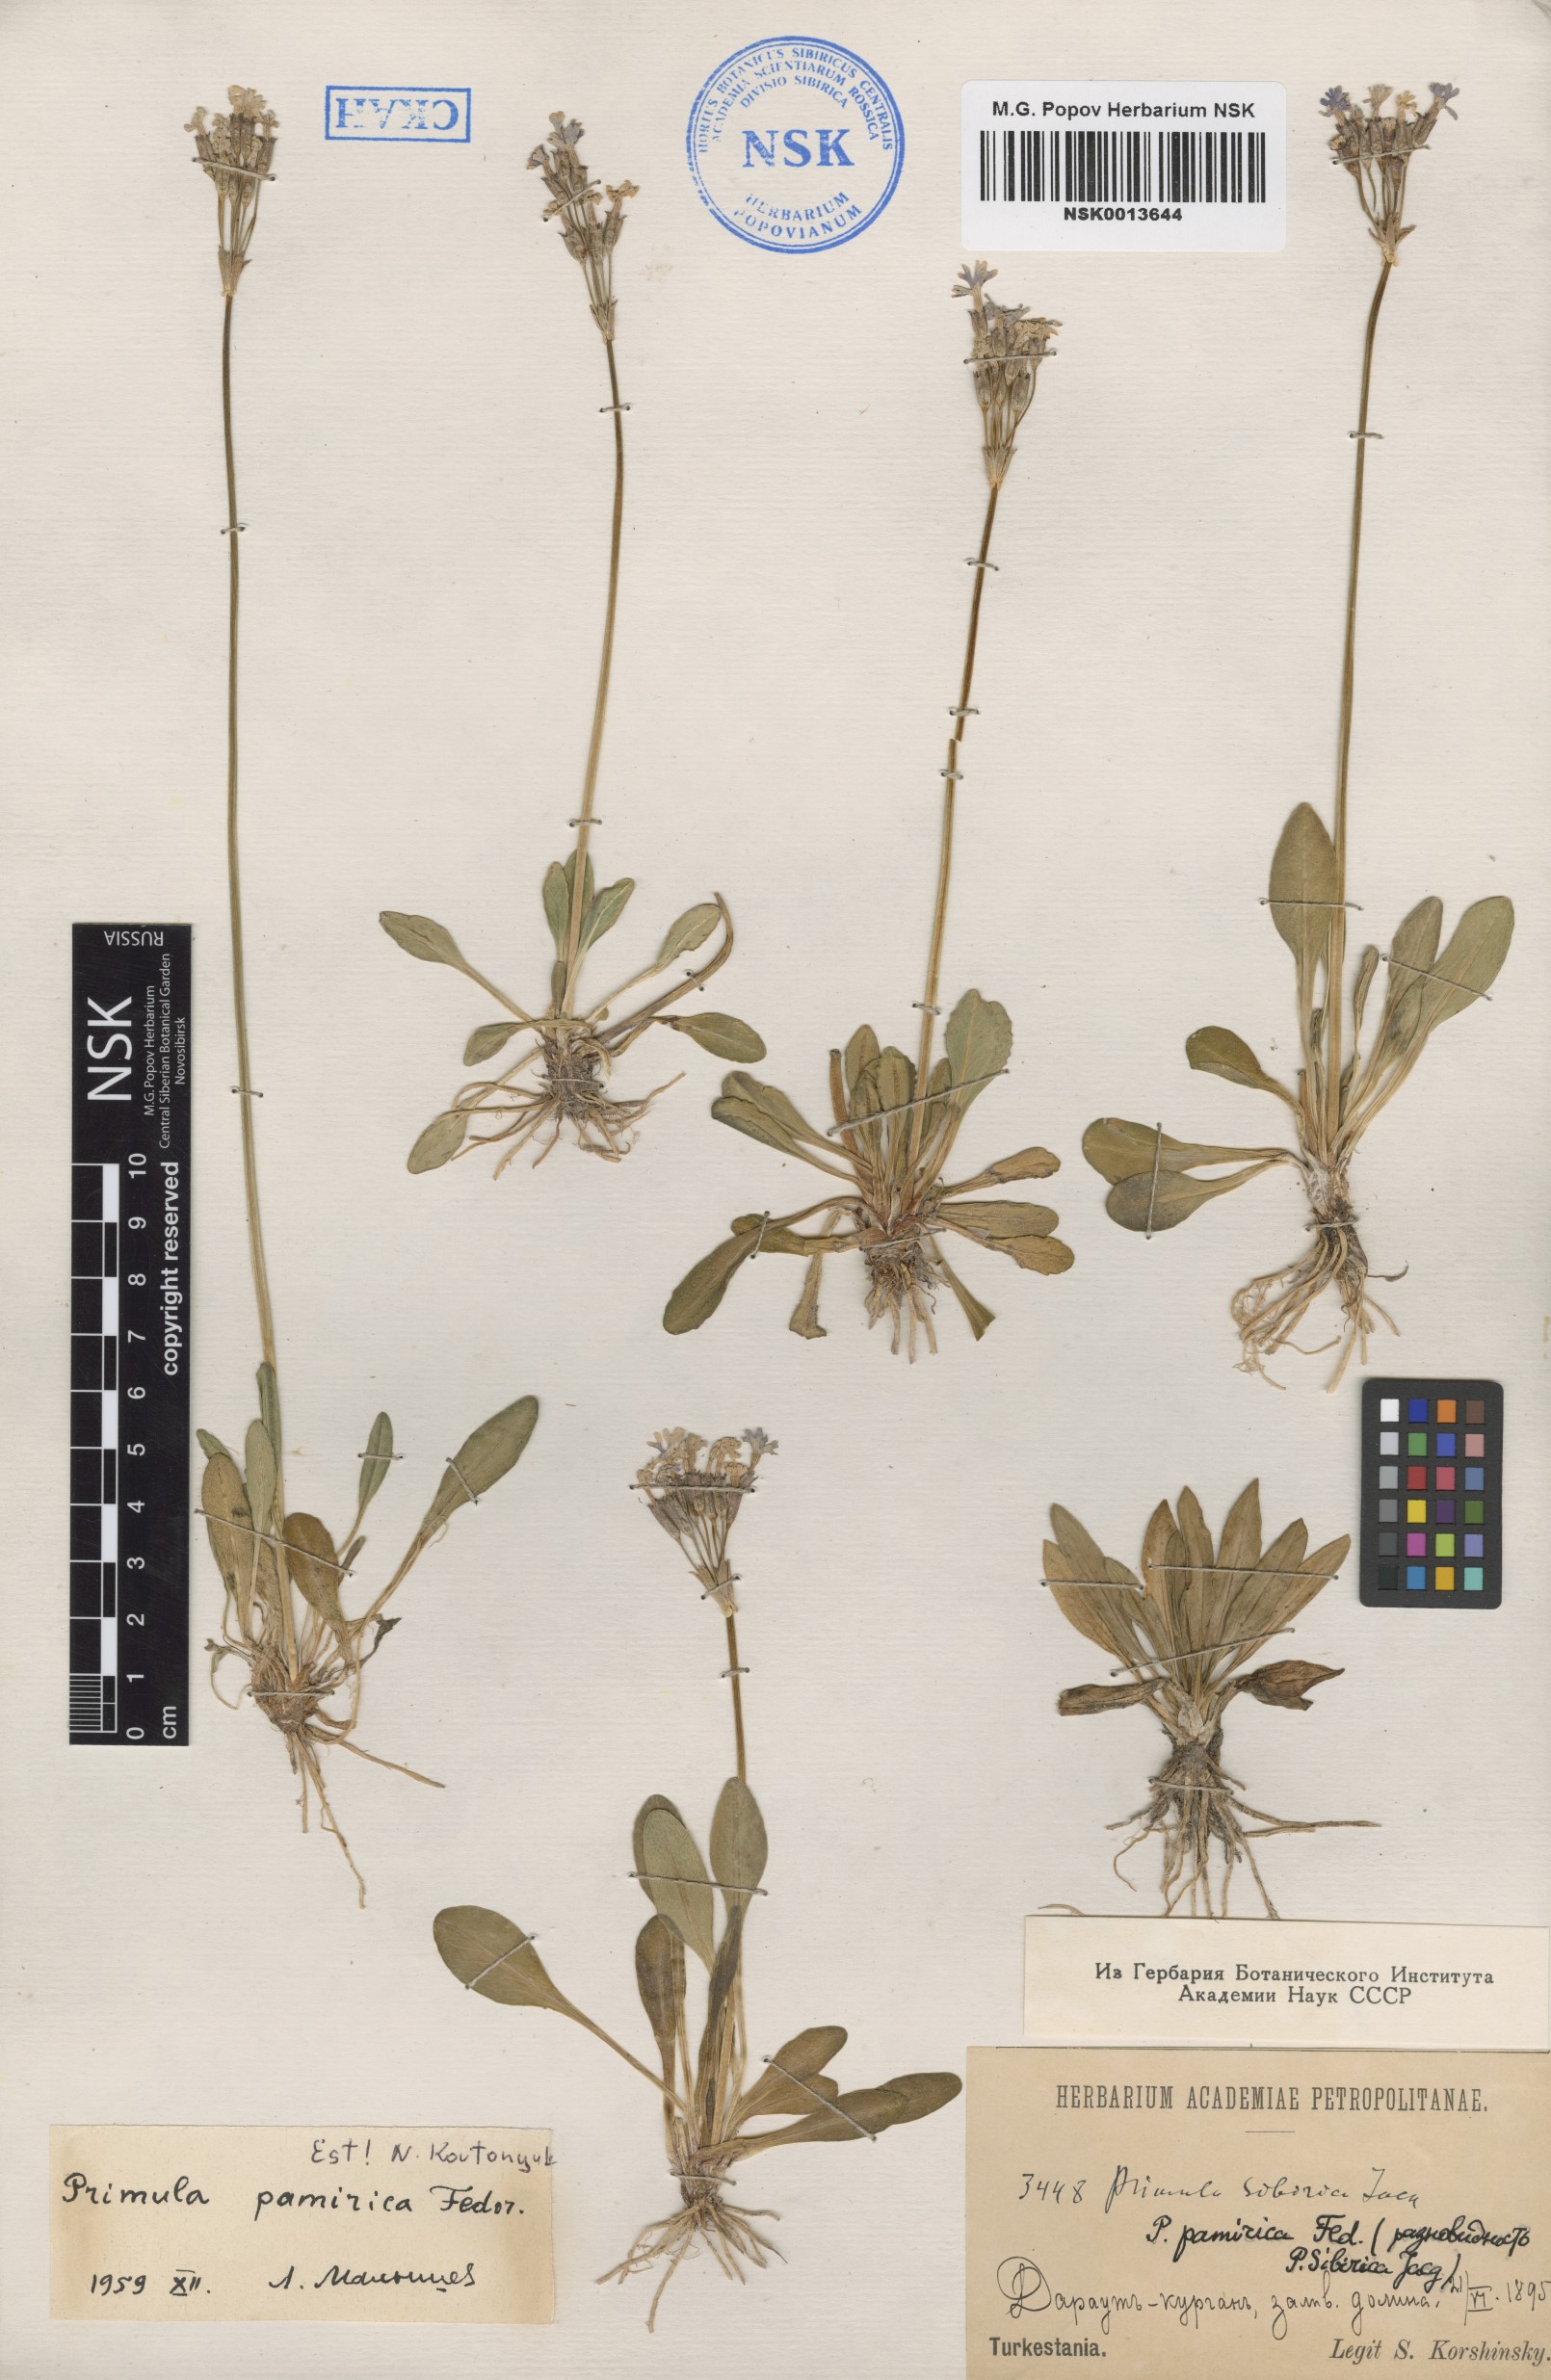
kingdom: Plantae
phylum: Tracheophyta
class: Magnoliopsida
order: Ericales
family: Primulaceae
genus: Primula
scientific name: Primula pamirica
